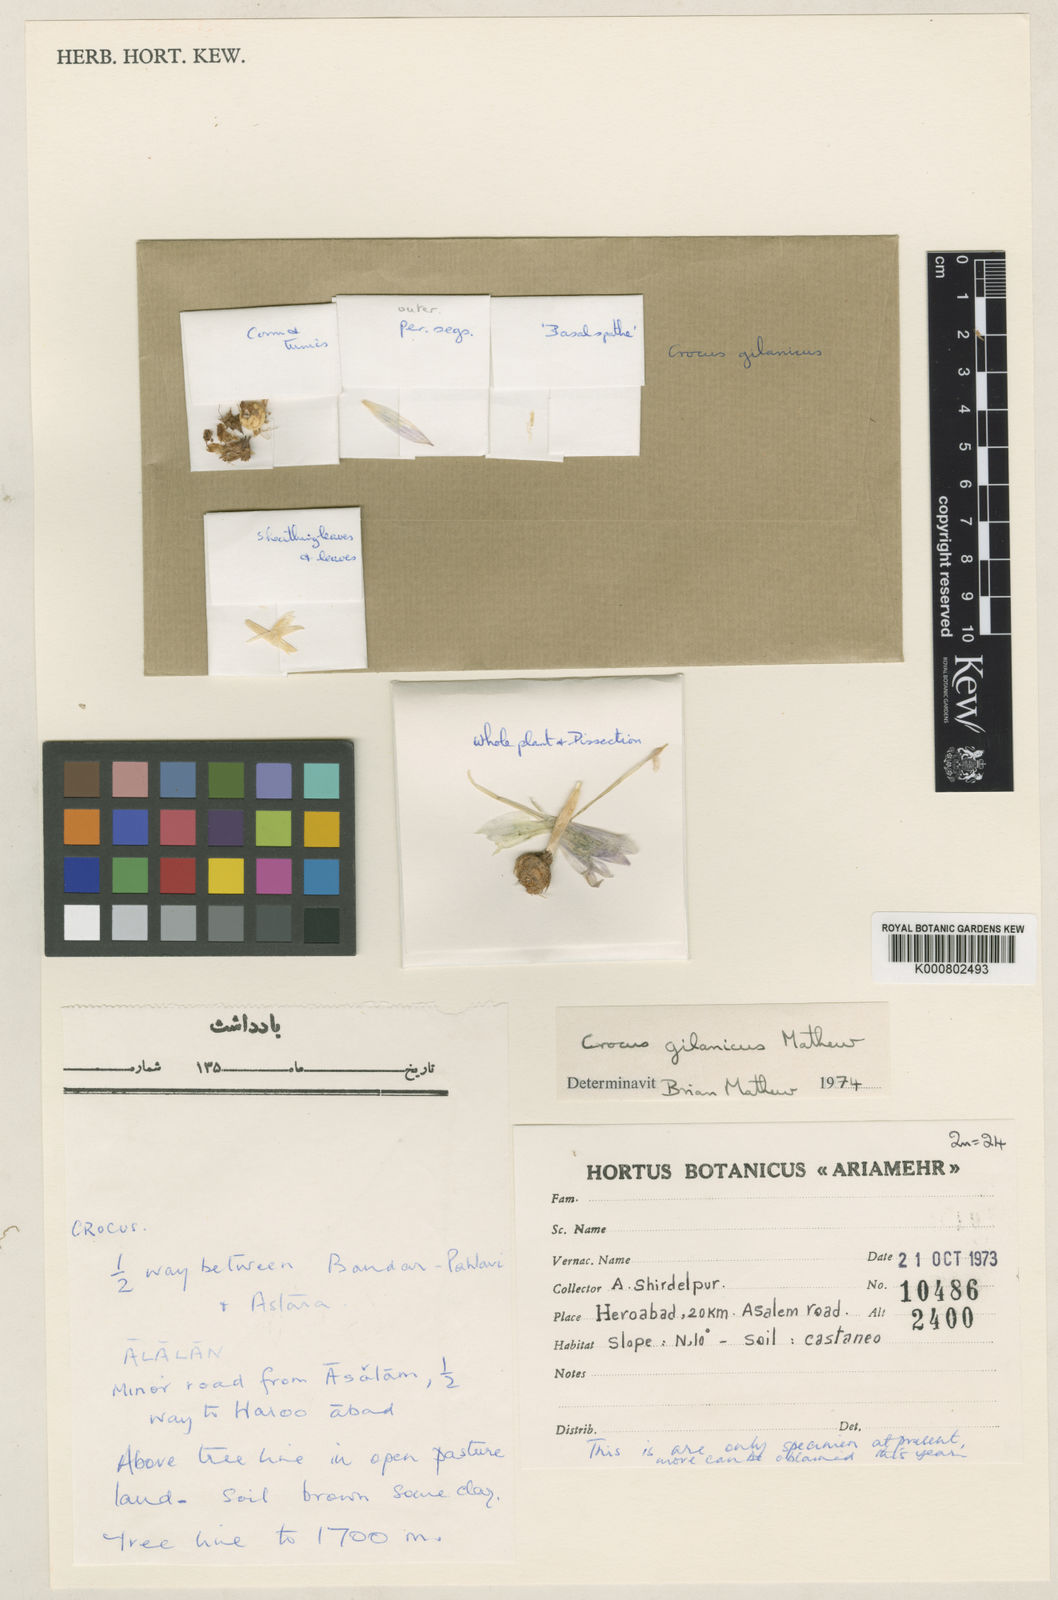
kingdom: Plantae
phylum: Tracheophyta
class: Liliopsida
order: Asparagales
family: Iridaceae
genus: Crocus
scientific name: Crocus gilanicus
